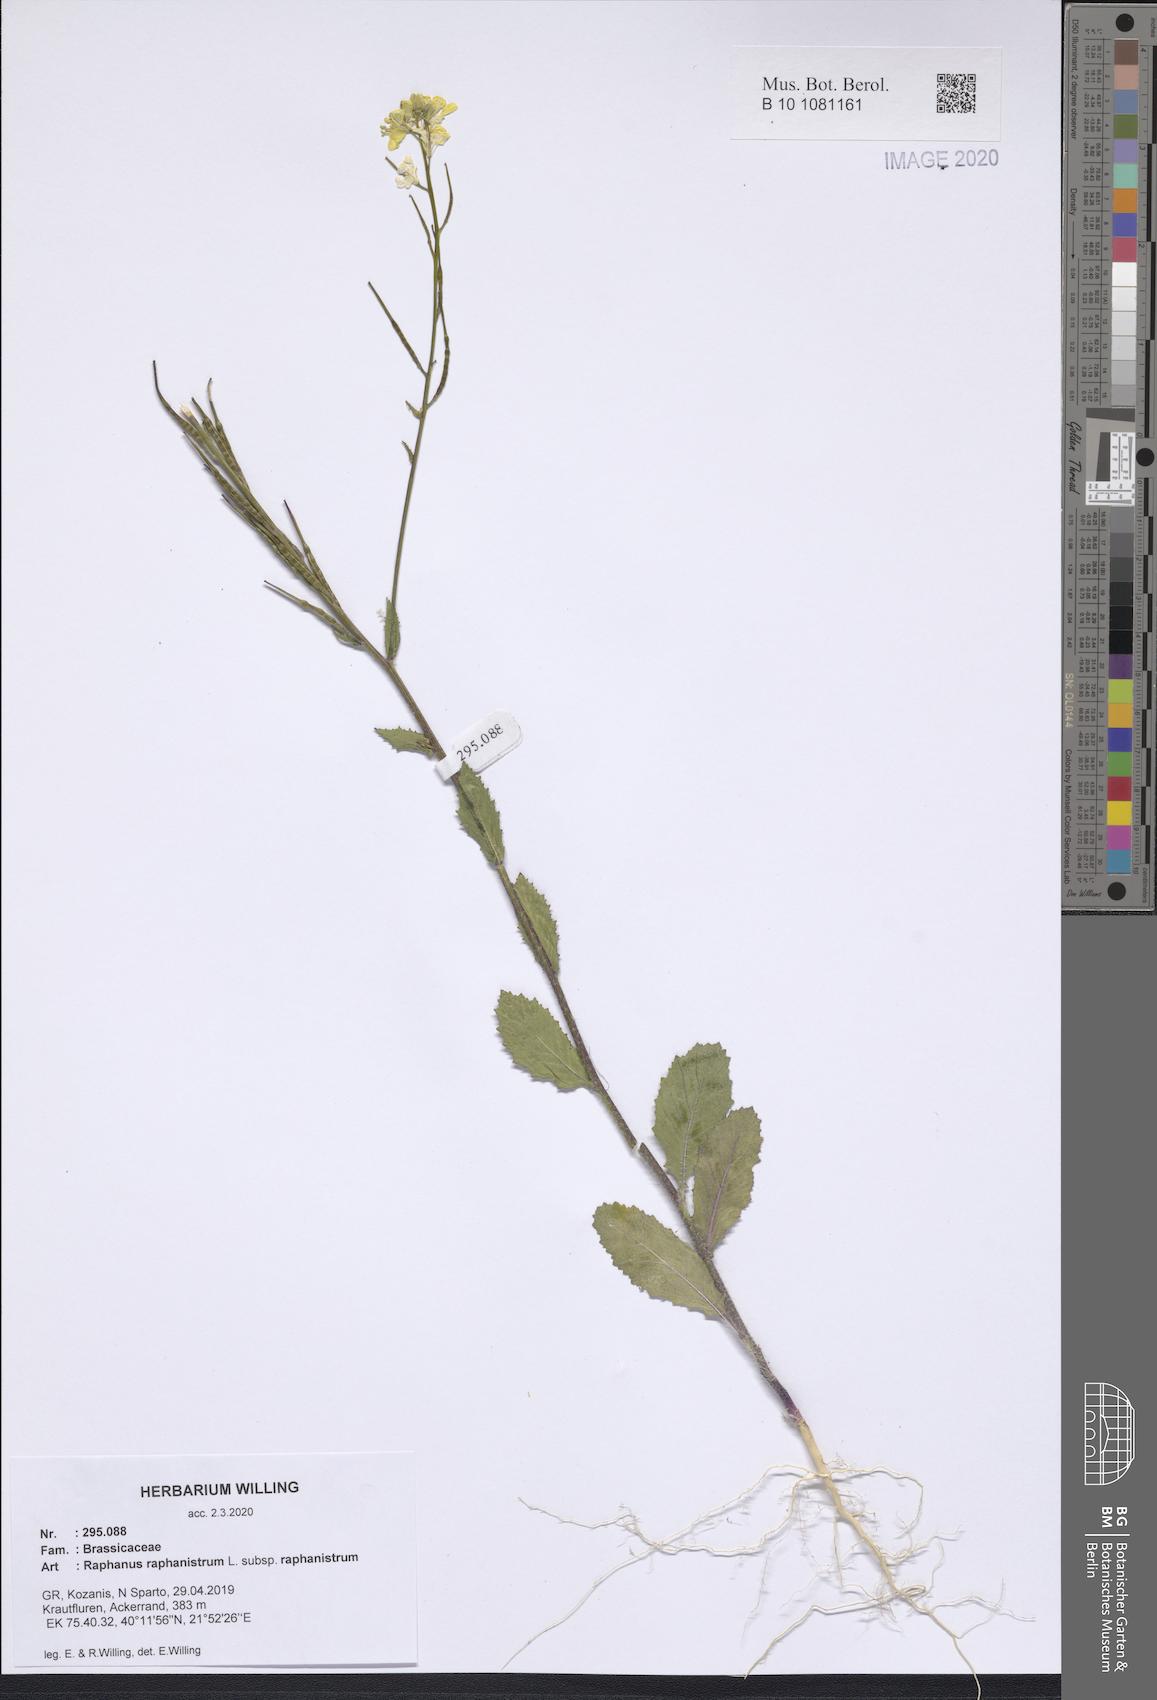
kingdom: Plantae
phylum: Tracheophyta
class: Magnoliopsida
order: Brassicales
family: Brassicaceae
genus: Raphanus
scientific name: Raphanus raphanistrum
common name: Wild radish
